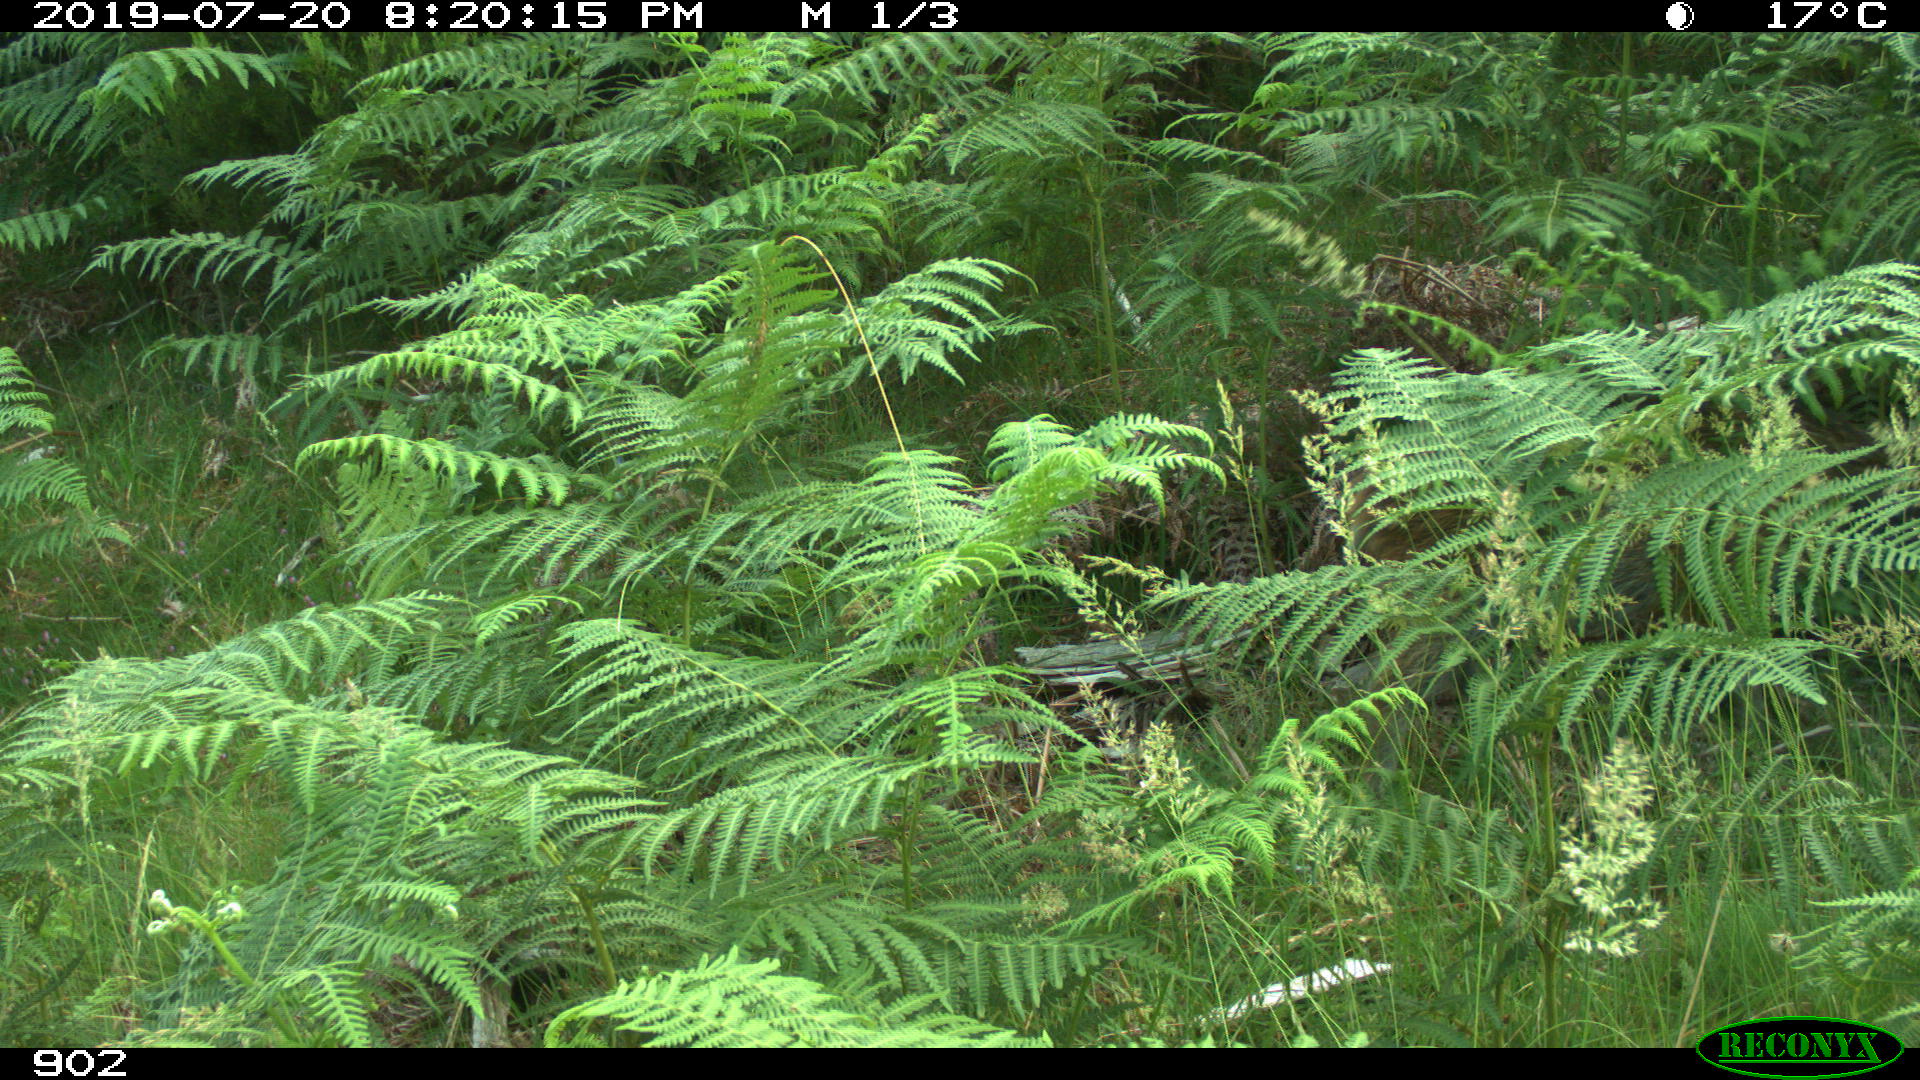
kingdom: Animalia
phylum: Chordata
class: Mammalia
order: Artiodactyla
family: Suidae
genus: Sus
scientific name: Sus scrofa
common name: Wild boar
